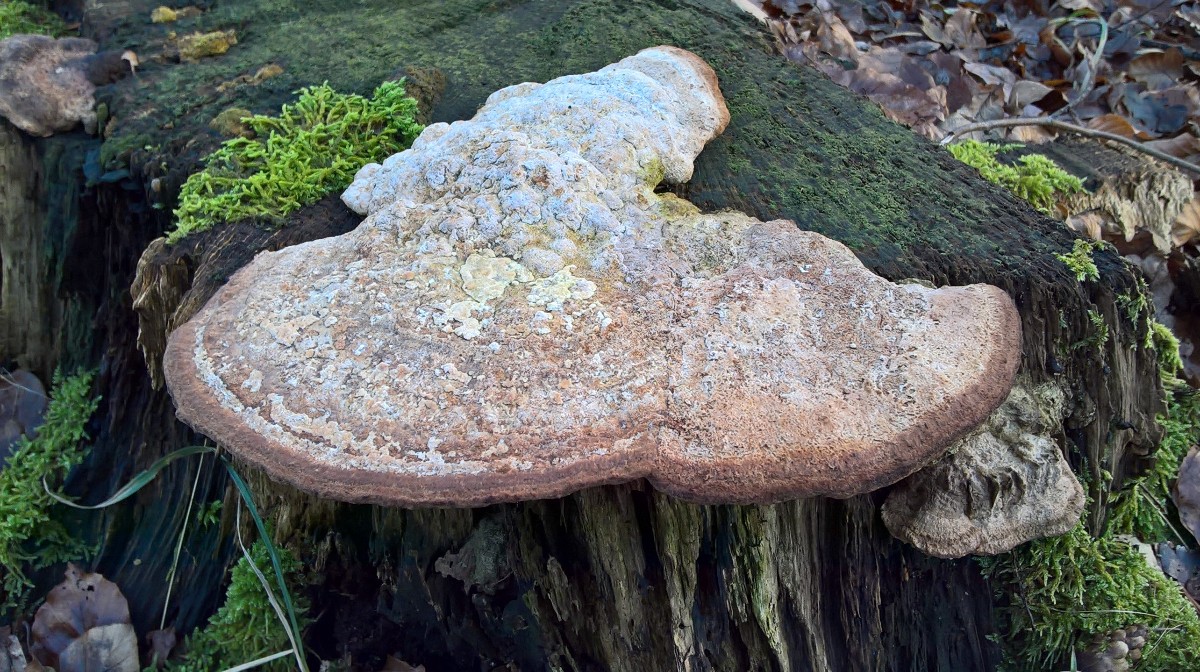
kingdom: Fungi
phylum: Basidiomycota
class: Agaricomycetes
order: Polyporales
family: Fomitopsidaceae
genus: Daedalea
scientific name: Daedalea quercina
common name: ege-labyrintsvamp
